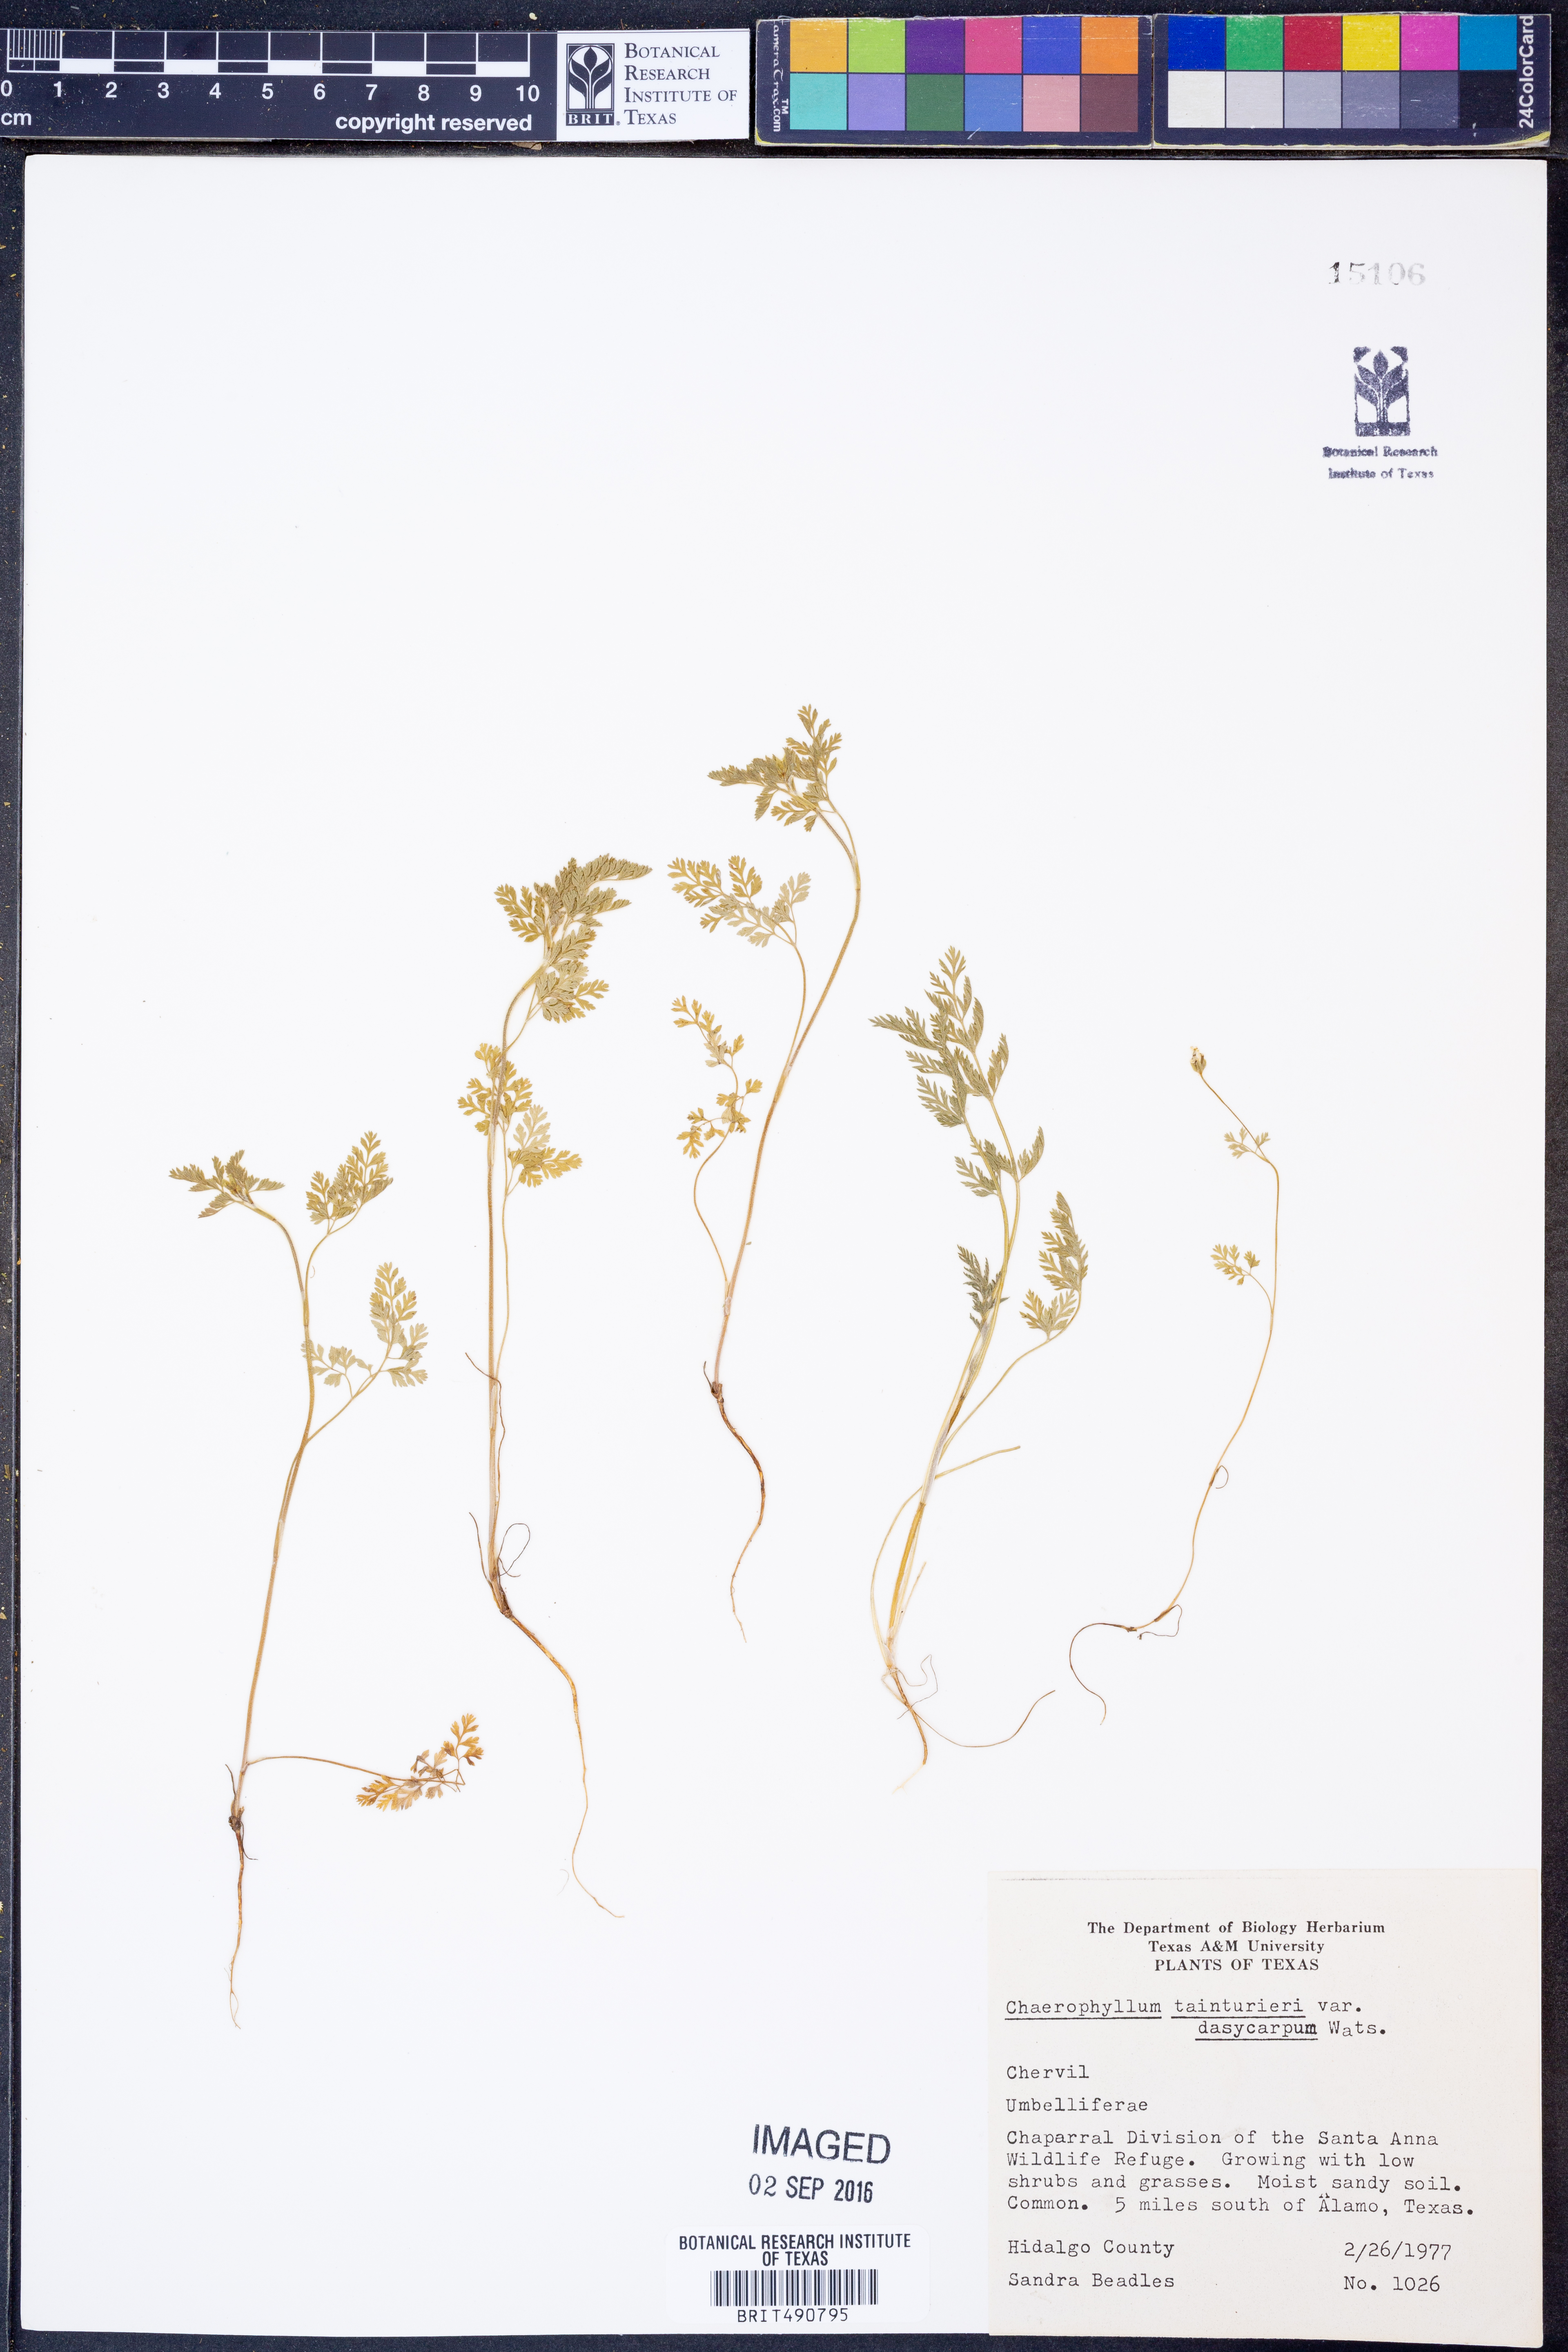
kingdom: Plantae
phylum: Tracheophyta
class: Magnoliopsida
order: Apiales
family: Apiaceae
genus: Chaerophyllum
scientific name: Chaerophyllum dasycarpum
